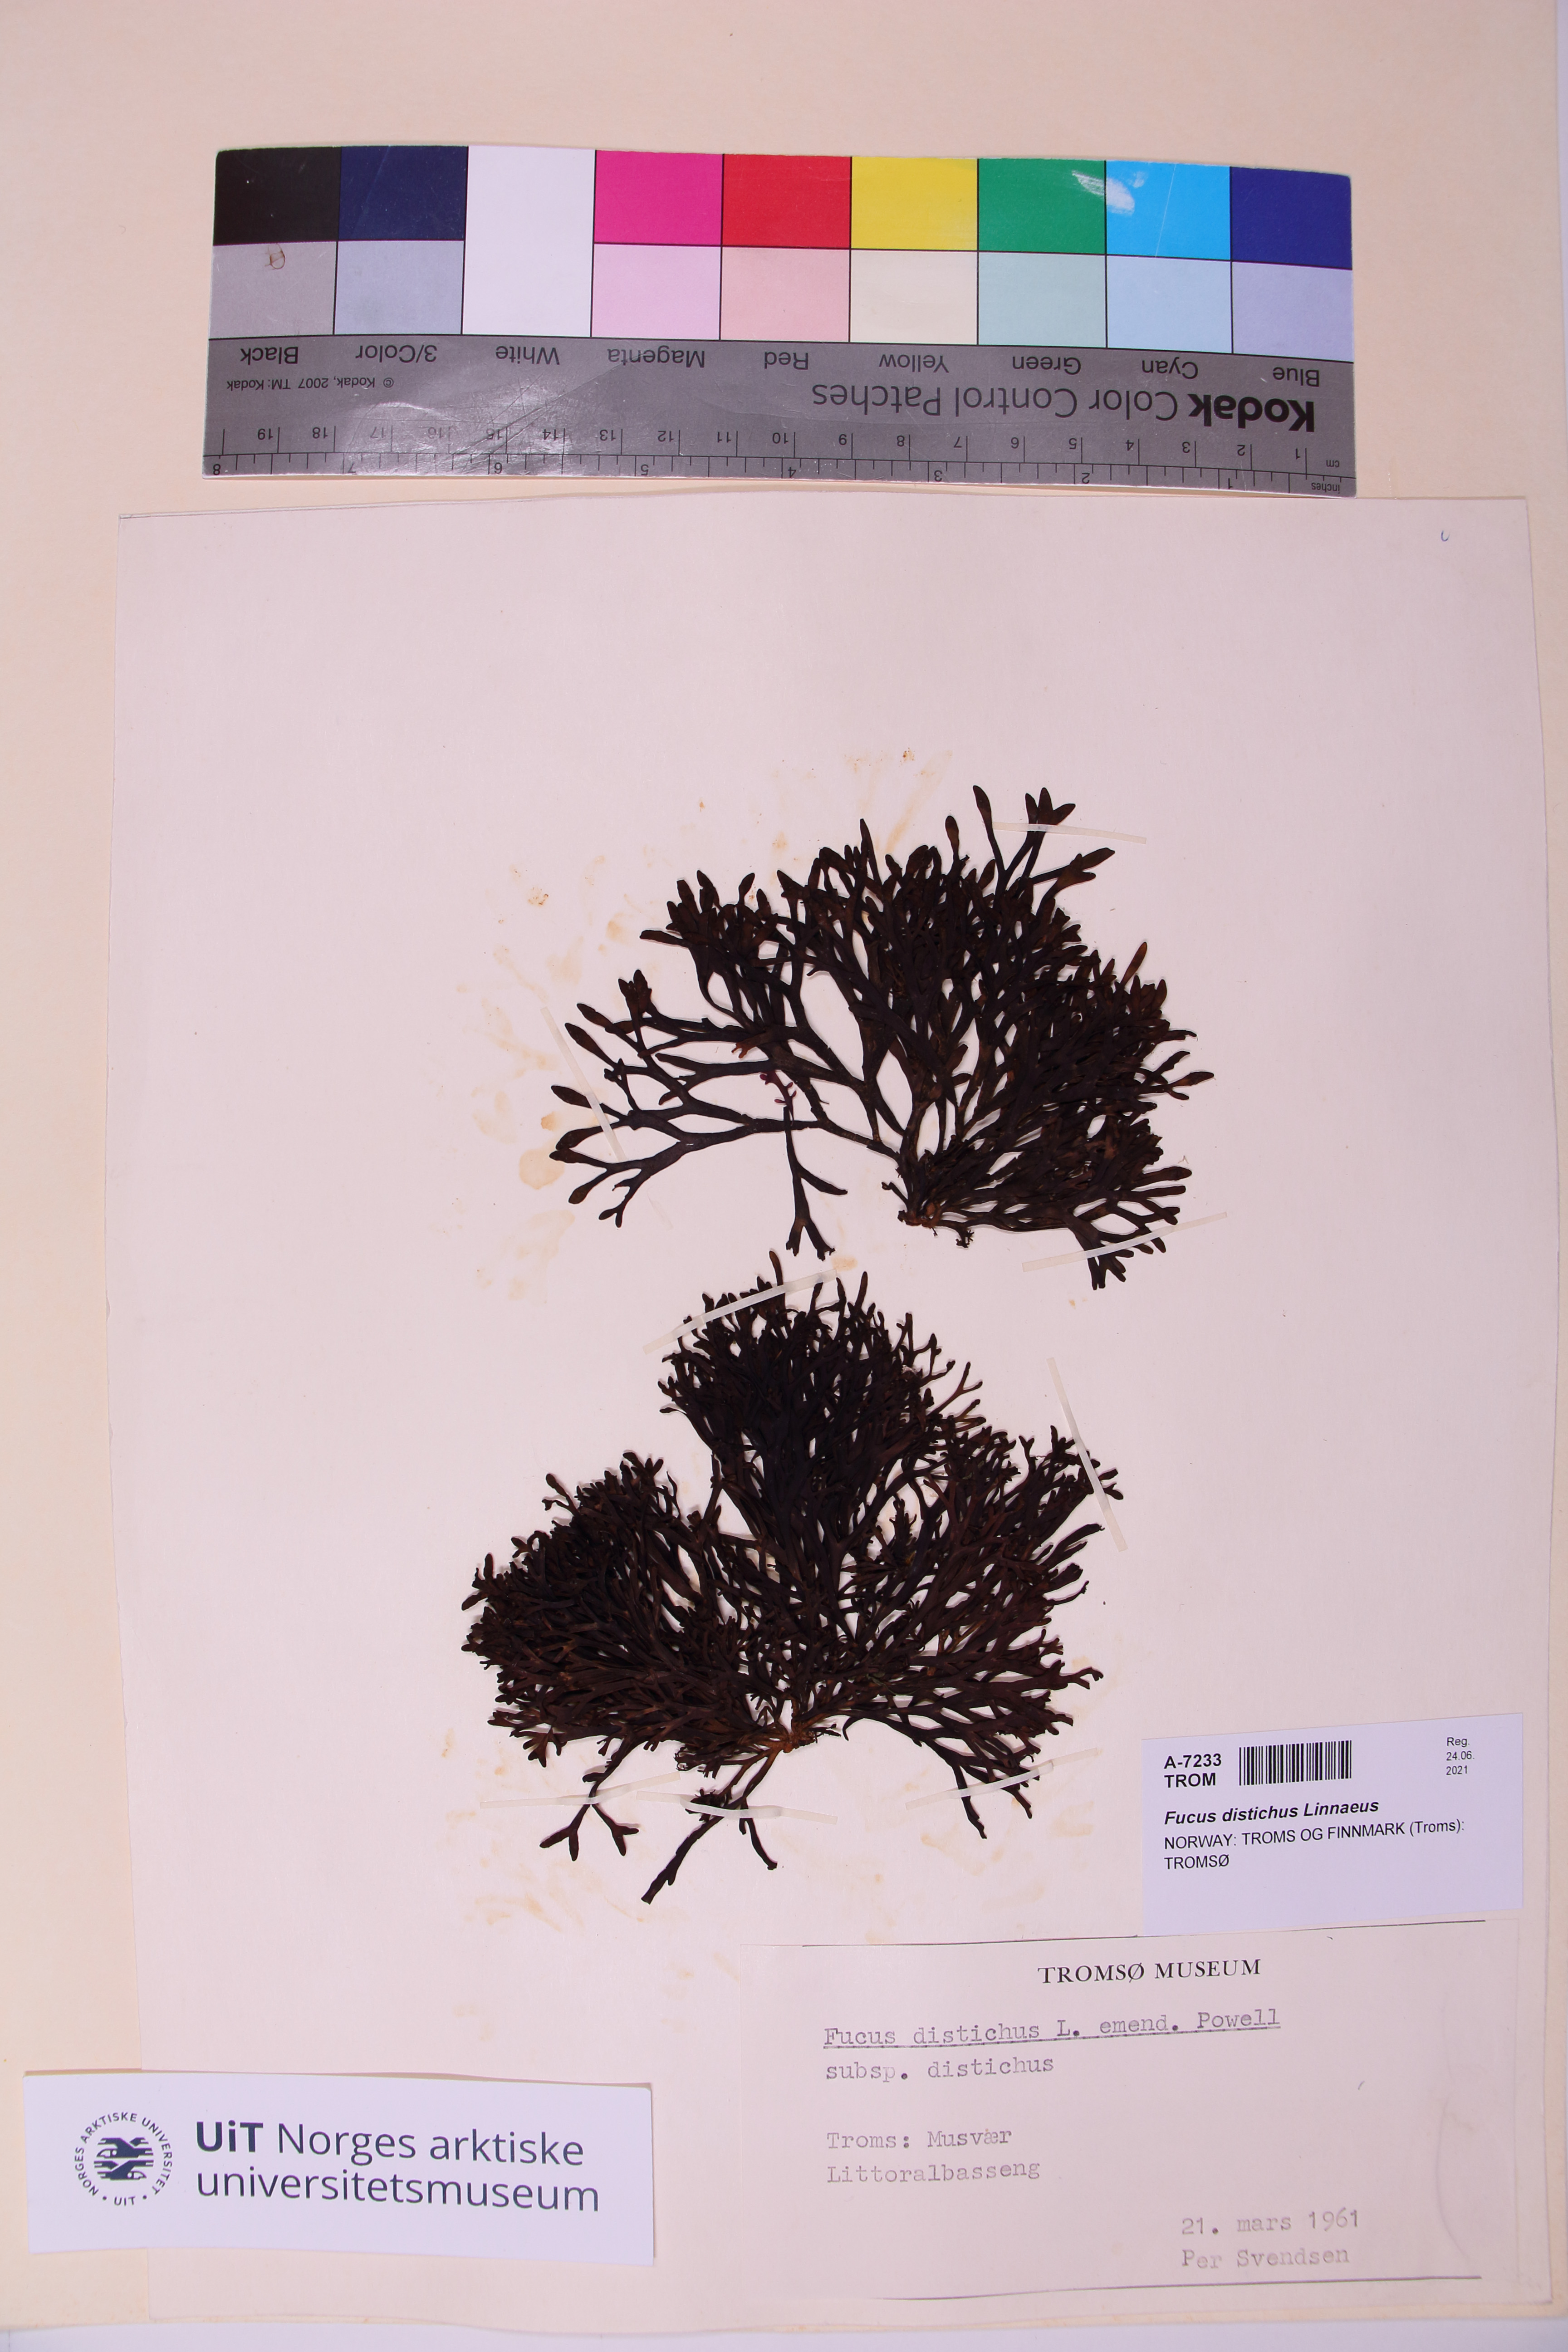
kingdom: Chromista
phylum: Ochrophyta
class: Phaeophyceae
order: Fucales
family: Fucaceae
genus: Fucus
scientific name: Fucus distichus
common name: Rockweed
